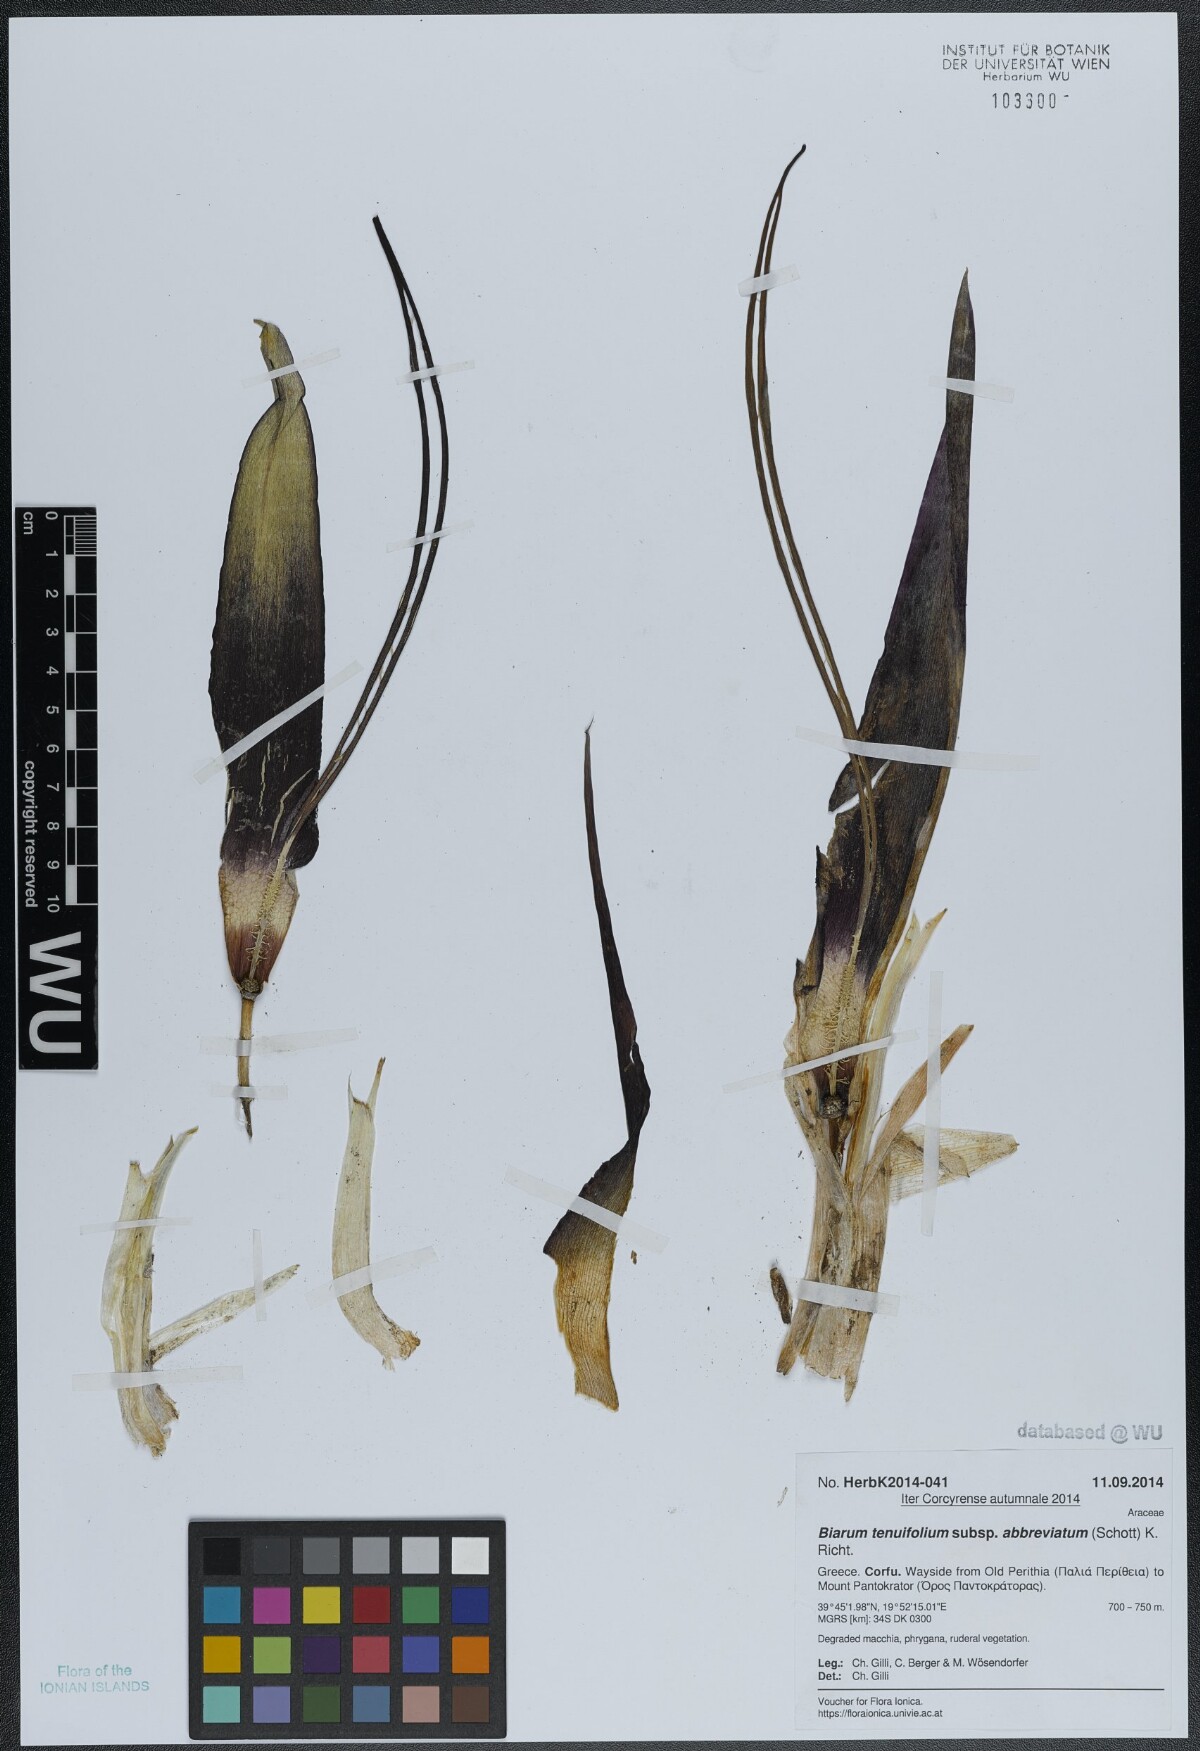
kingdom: Plantae
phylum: Tracheophyta
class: Liliopsida
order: Alismatales
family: Araceae
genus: Biarum
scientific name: Biarum tenuifolium
